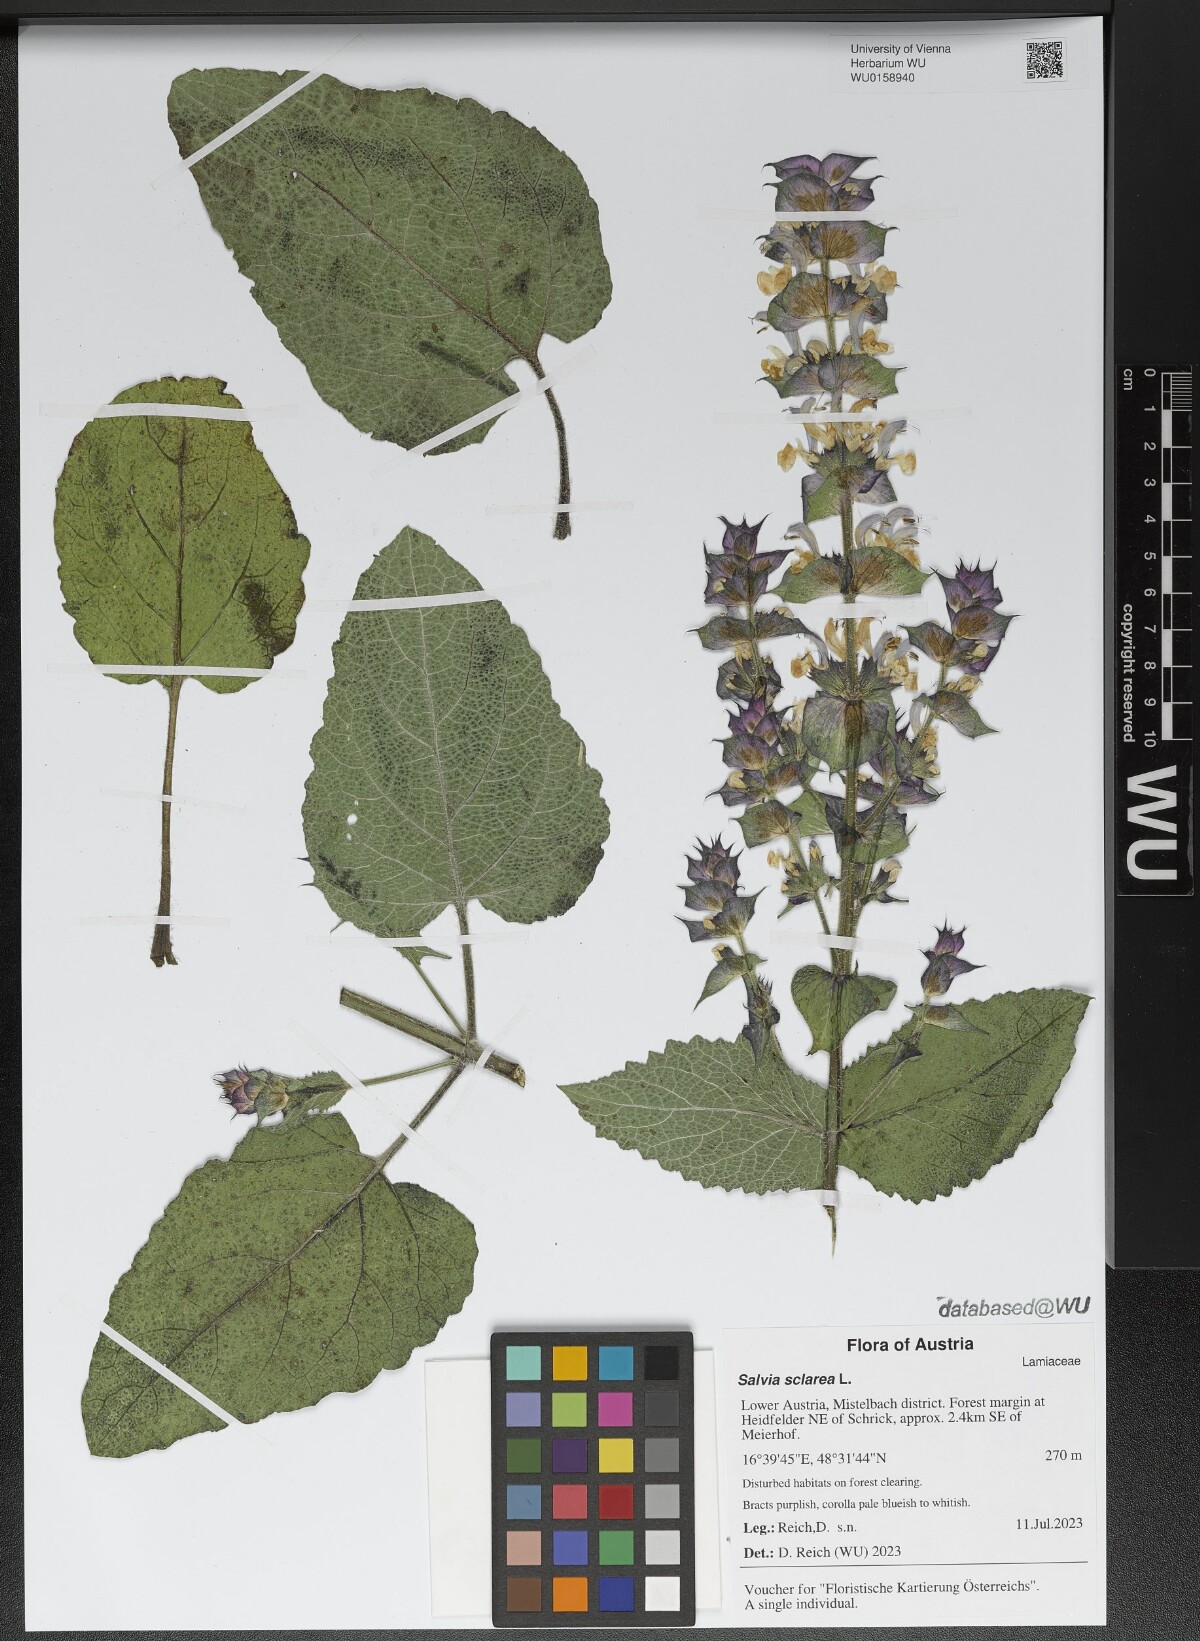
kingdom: Plantae
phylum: Tracheophyta
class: Magnoliopsida
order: Lamiales
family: Lamiaceae
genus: Salvia
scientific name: Salvia sclarea
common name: Clary
